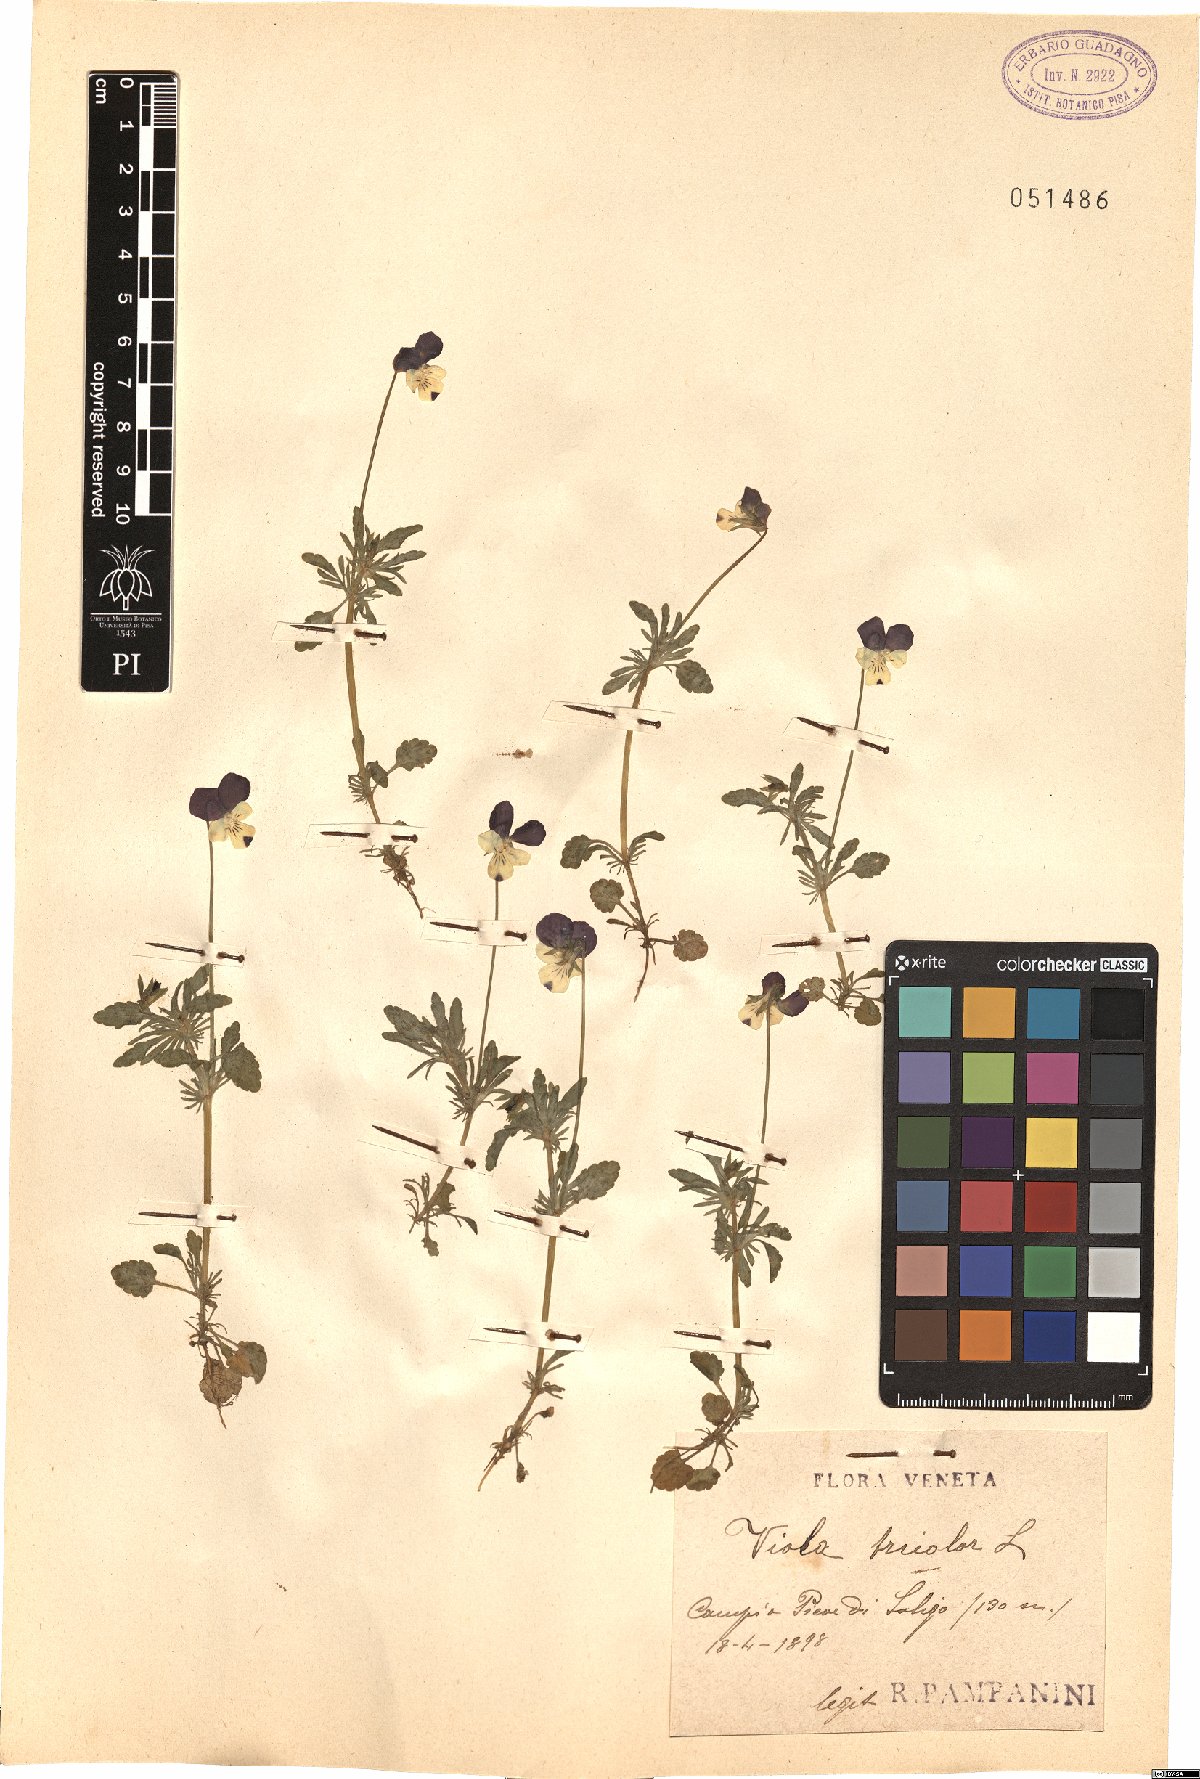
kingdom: Plantae
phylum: Tracheophyta
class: Magnoliopsida
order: Malpighiales
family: Violaceae
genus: Viola
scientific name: Viola tricolor
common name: Pansy
